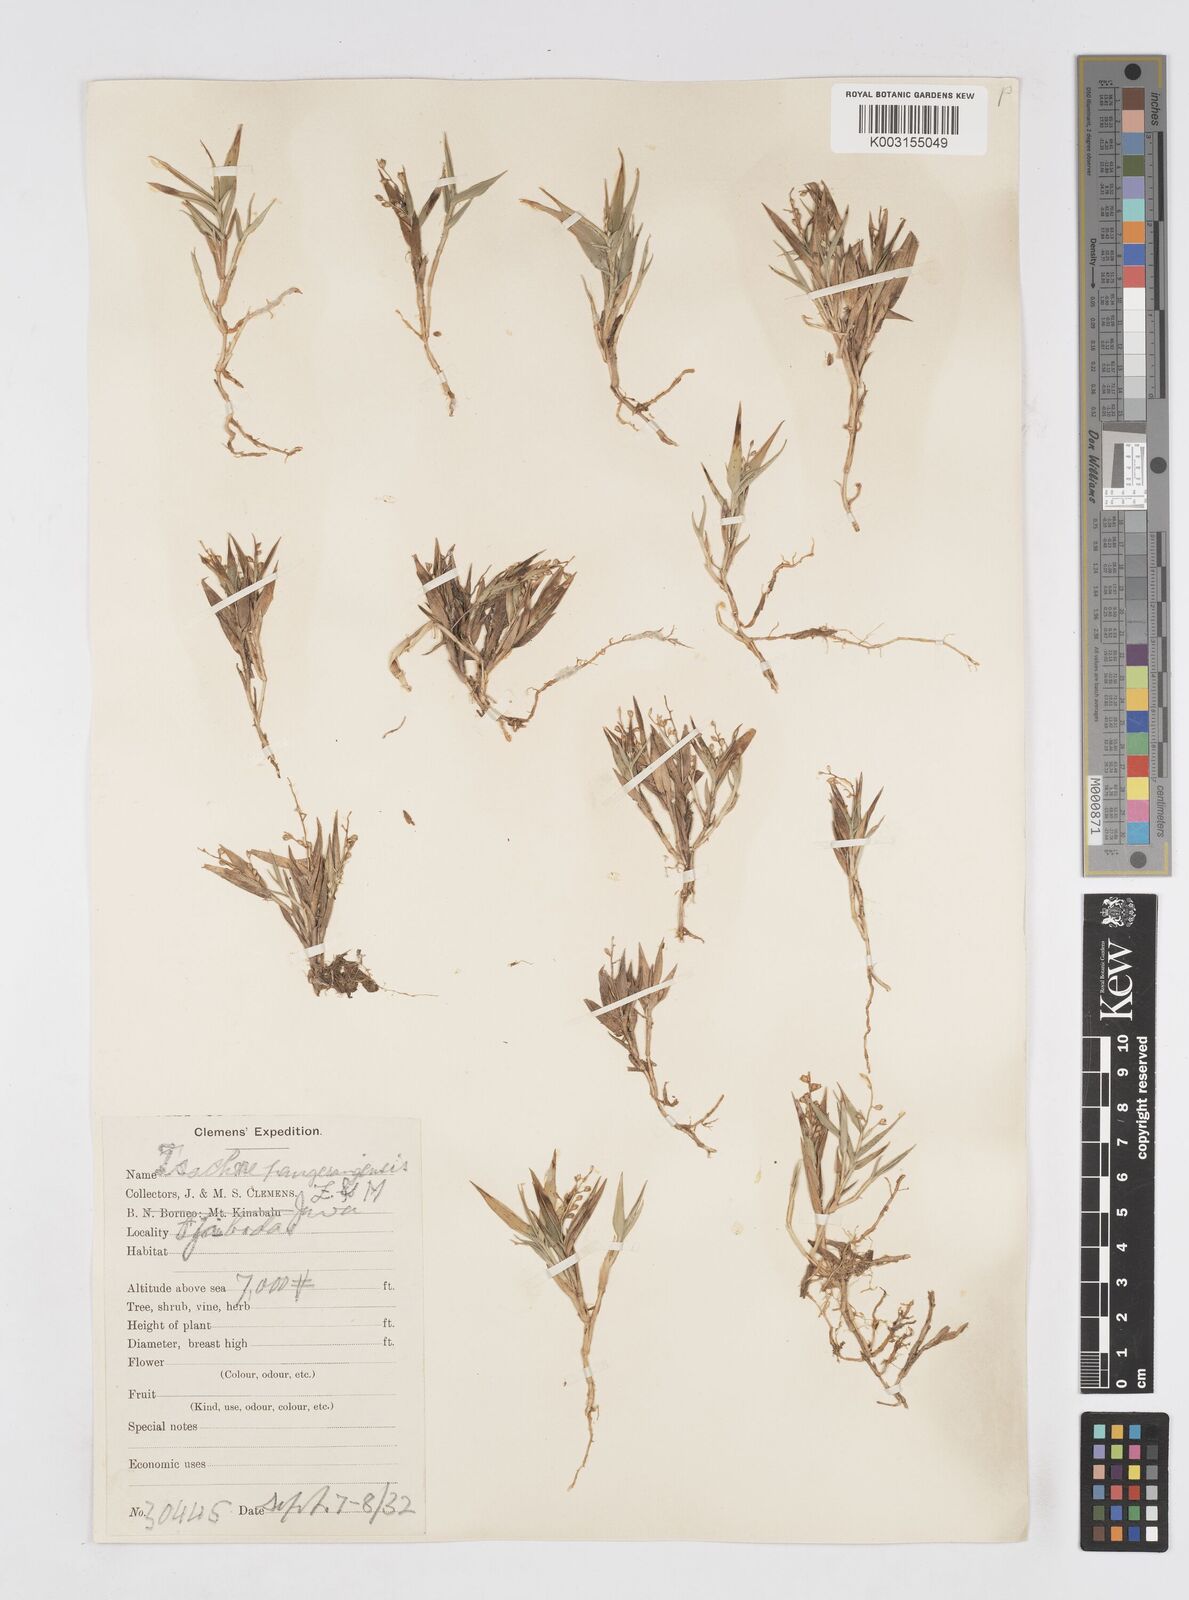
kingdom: Plantae
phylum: Tracheophyta
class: Liliopsida
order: Poales
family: Poaceae
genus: Isachne
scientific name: Isachne pangerangensis
